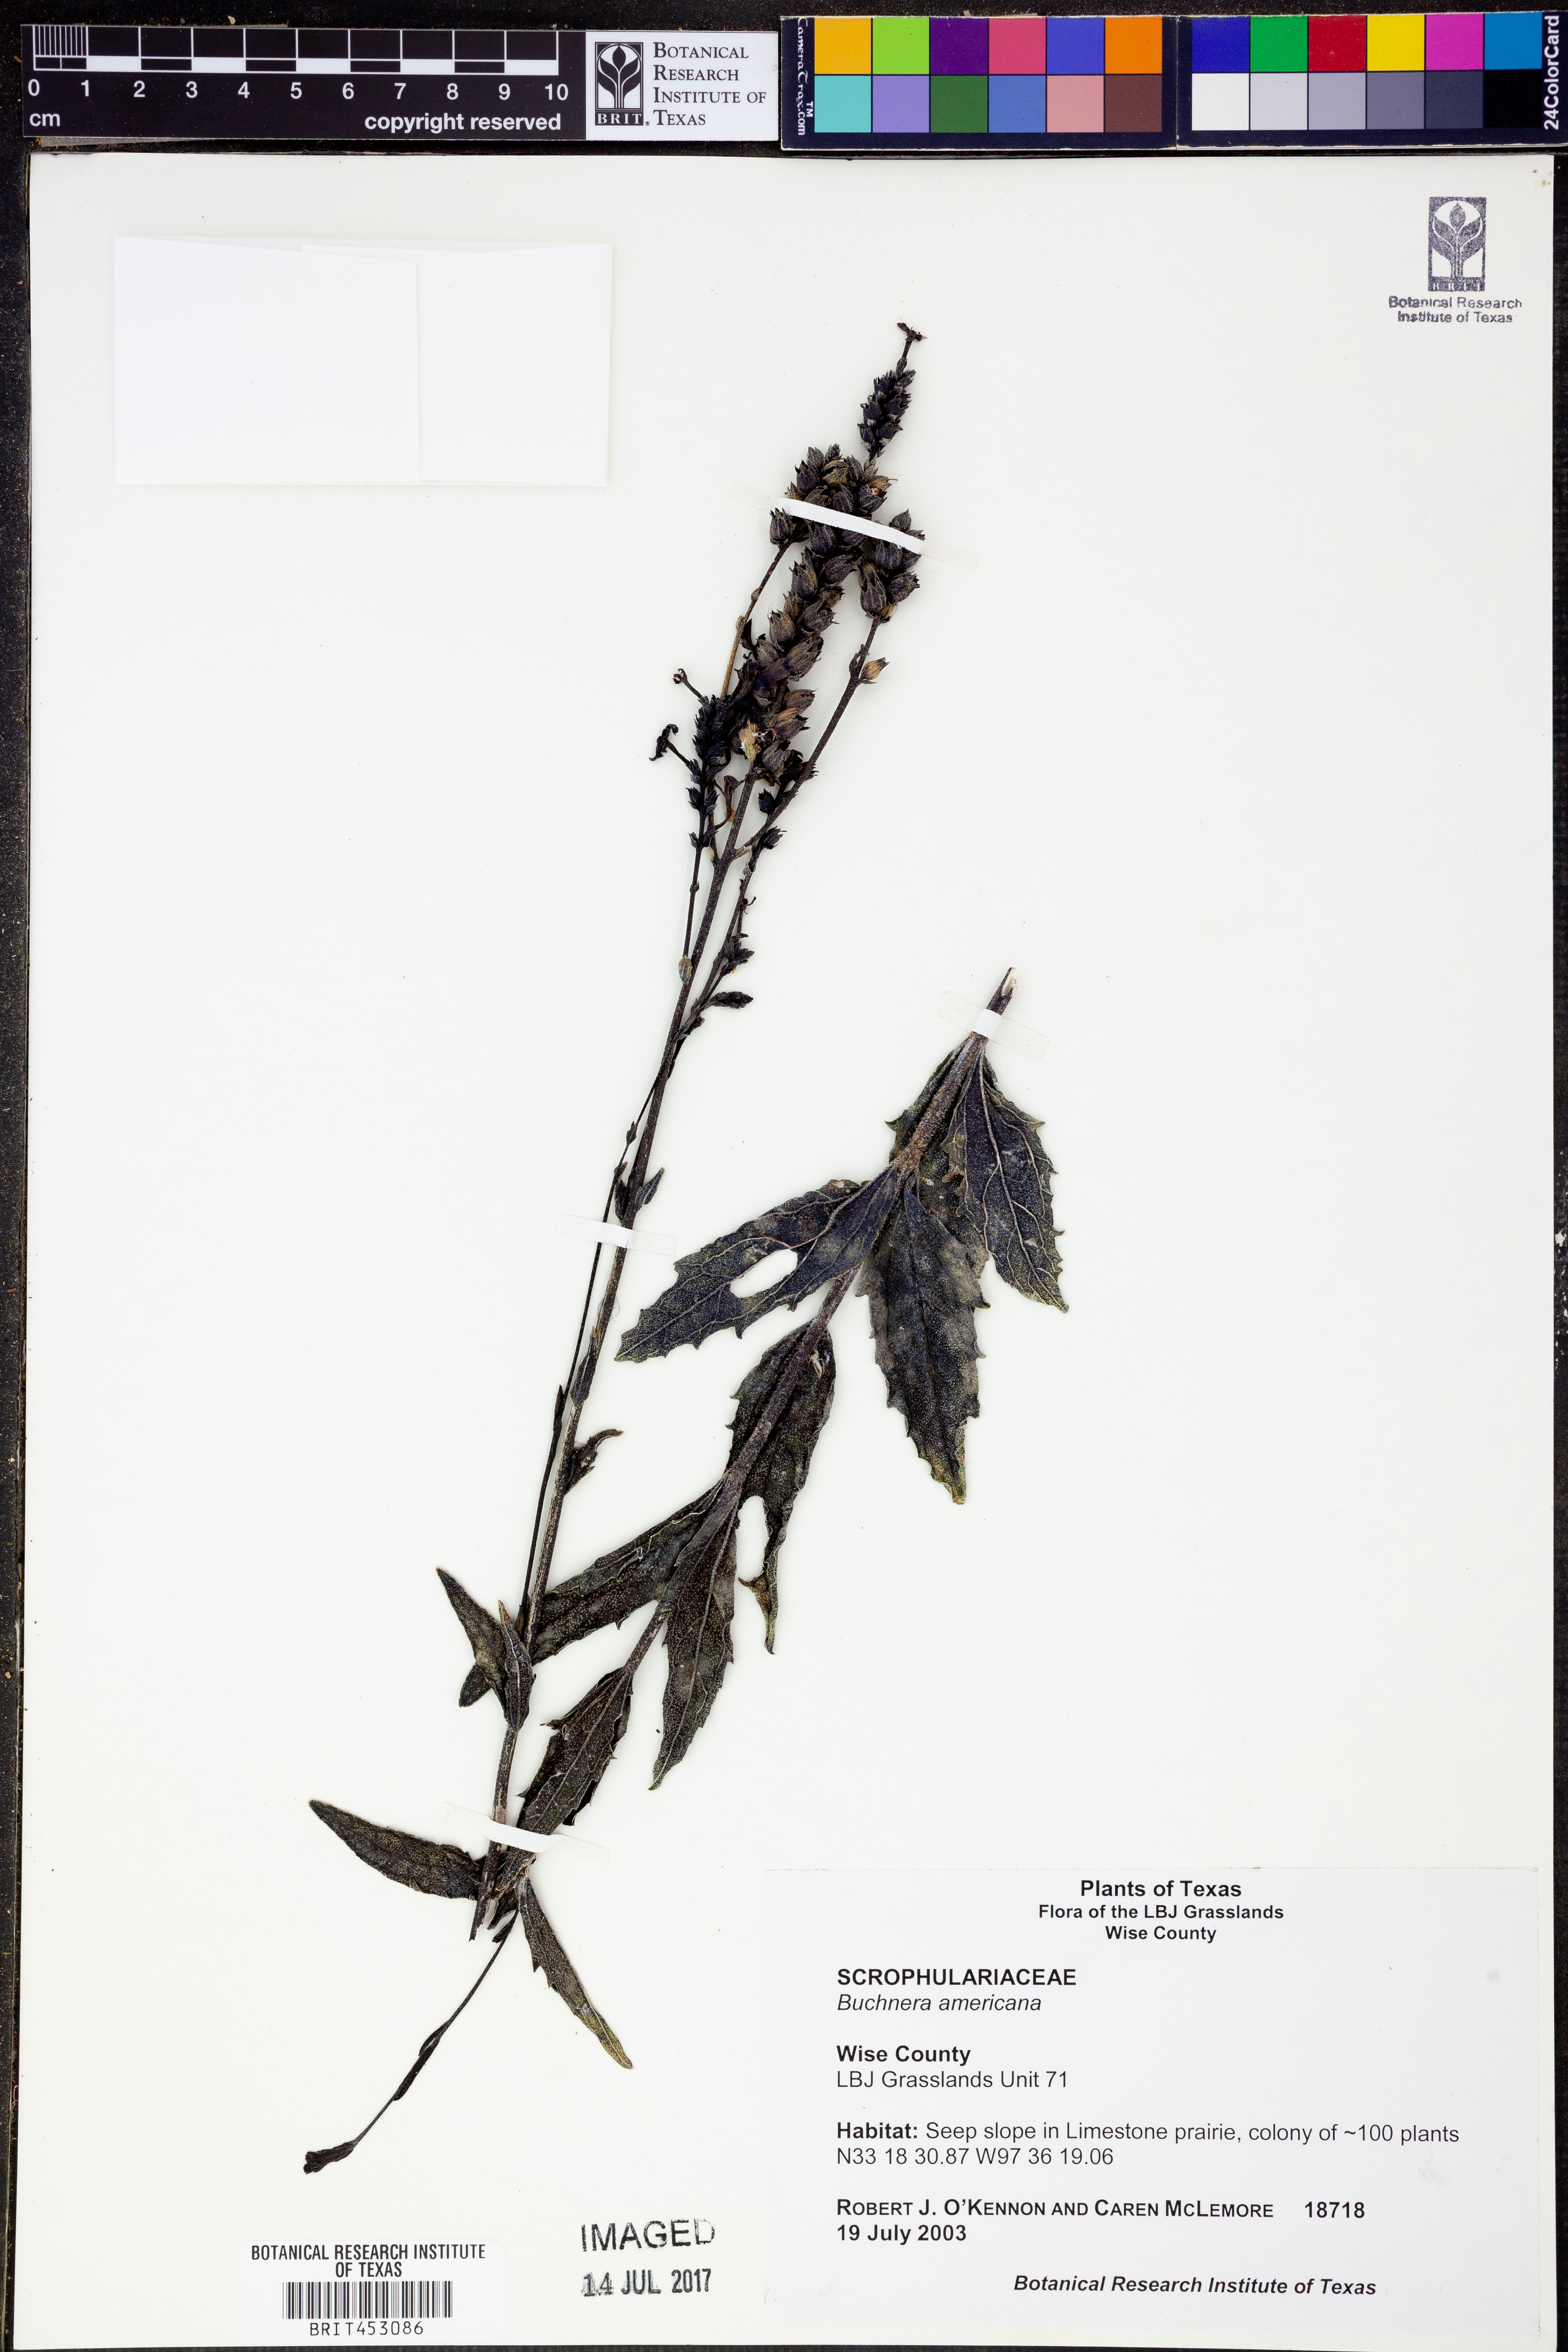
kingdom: Plantae
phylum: Tracheophyta
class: Magnoliopsida
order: Lamiales
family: Orobanchaceae
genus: Buchnera
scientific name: Buchnera americana
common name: American bluehearts
